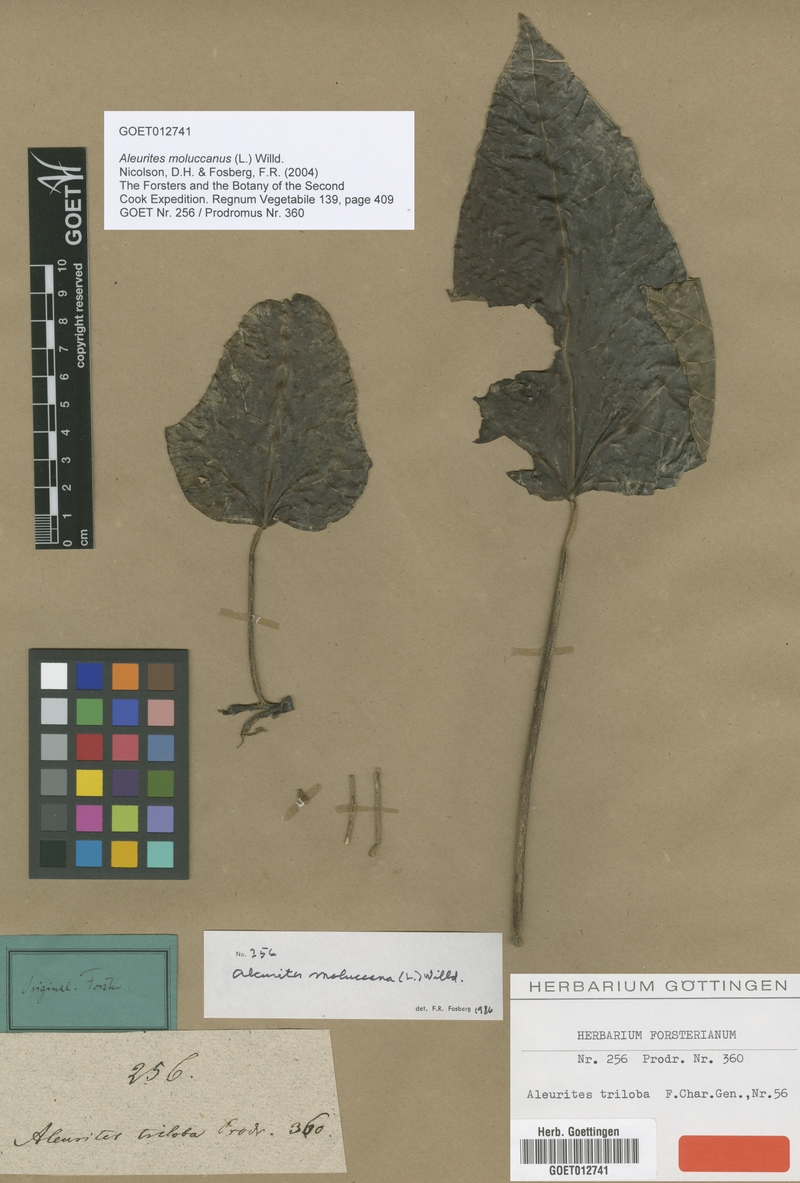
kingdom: Plantae
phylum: Tracheophyta
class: Magnoliopsida
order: Malpighiales
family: Euphorbiaceae
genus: Aleurites
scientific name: Aleurites moluccanus
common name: Candlenut tree
